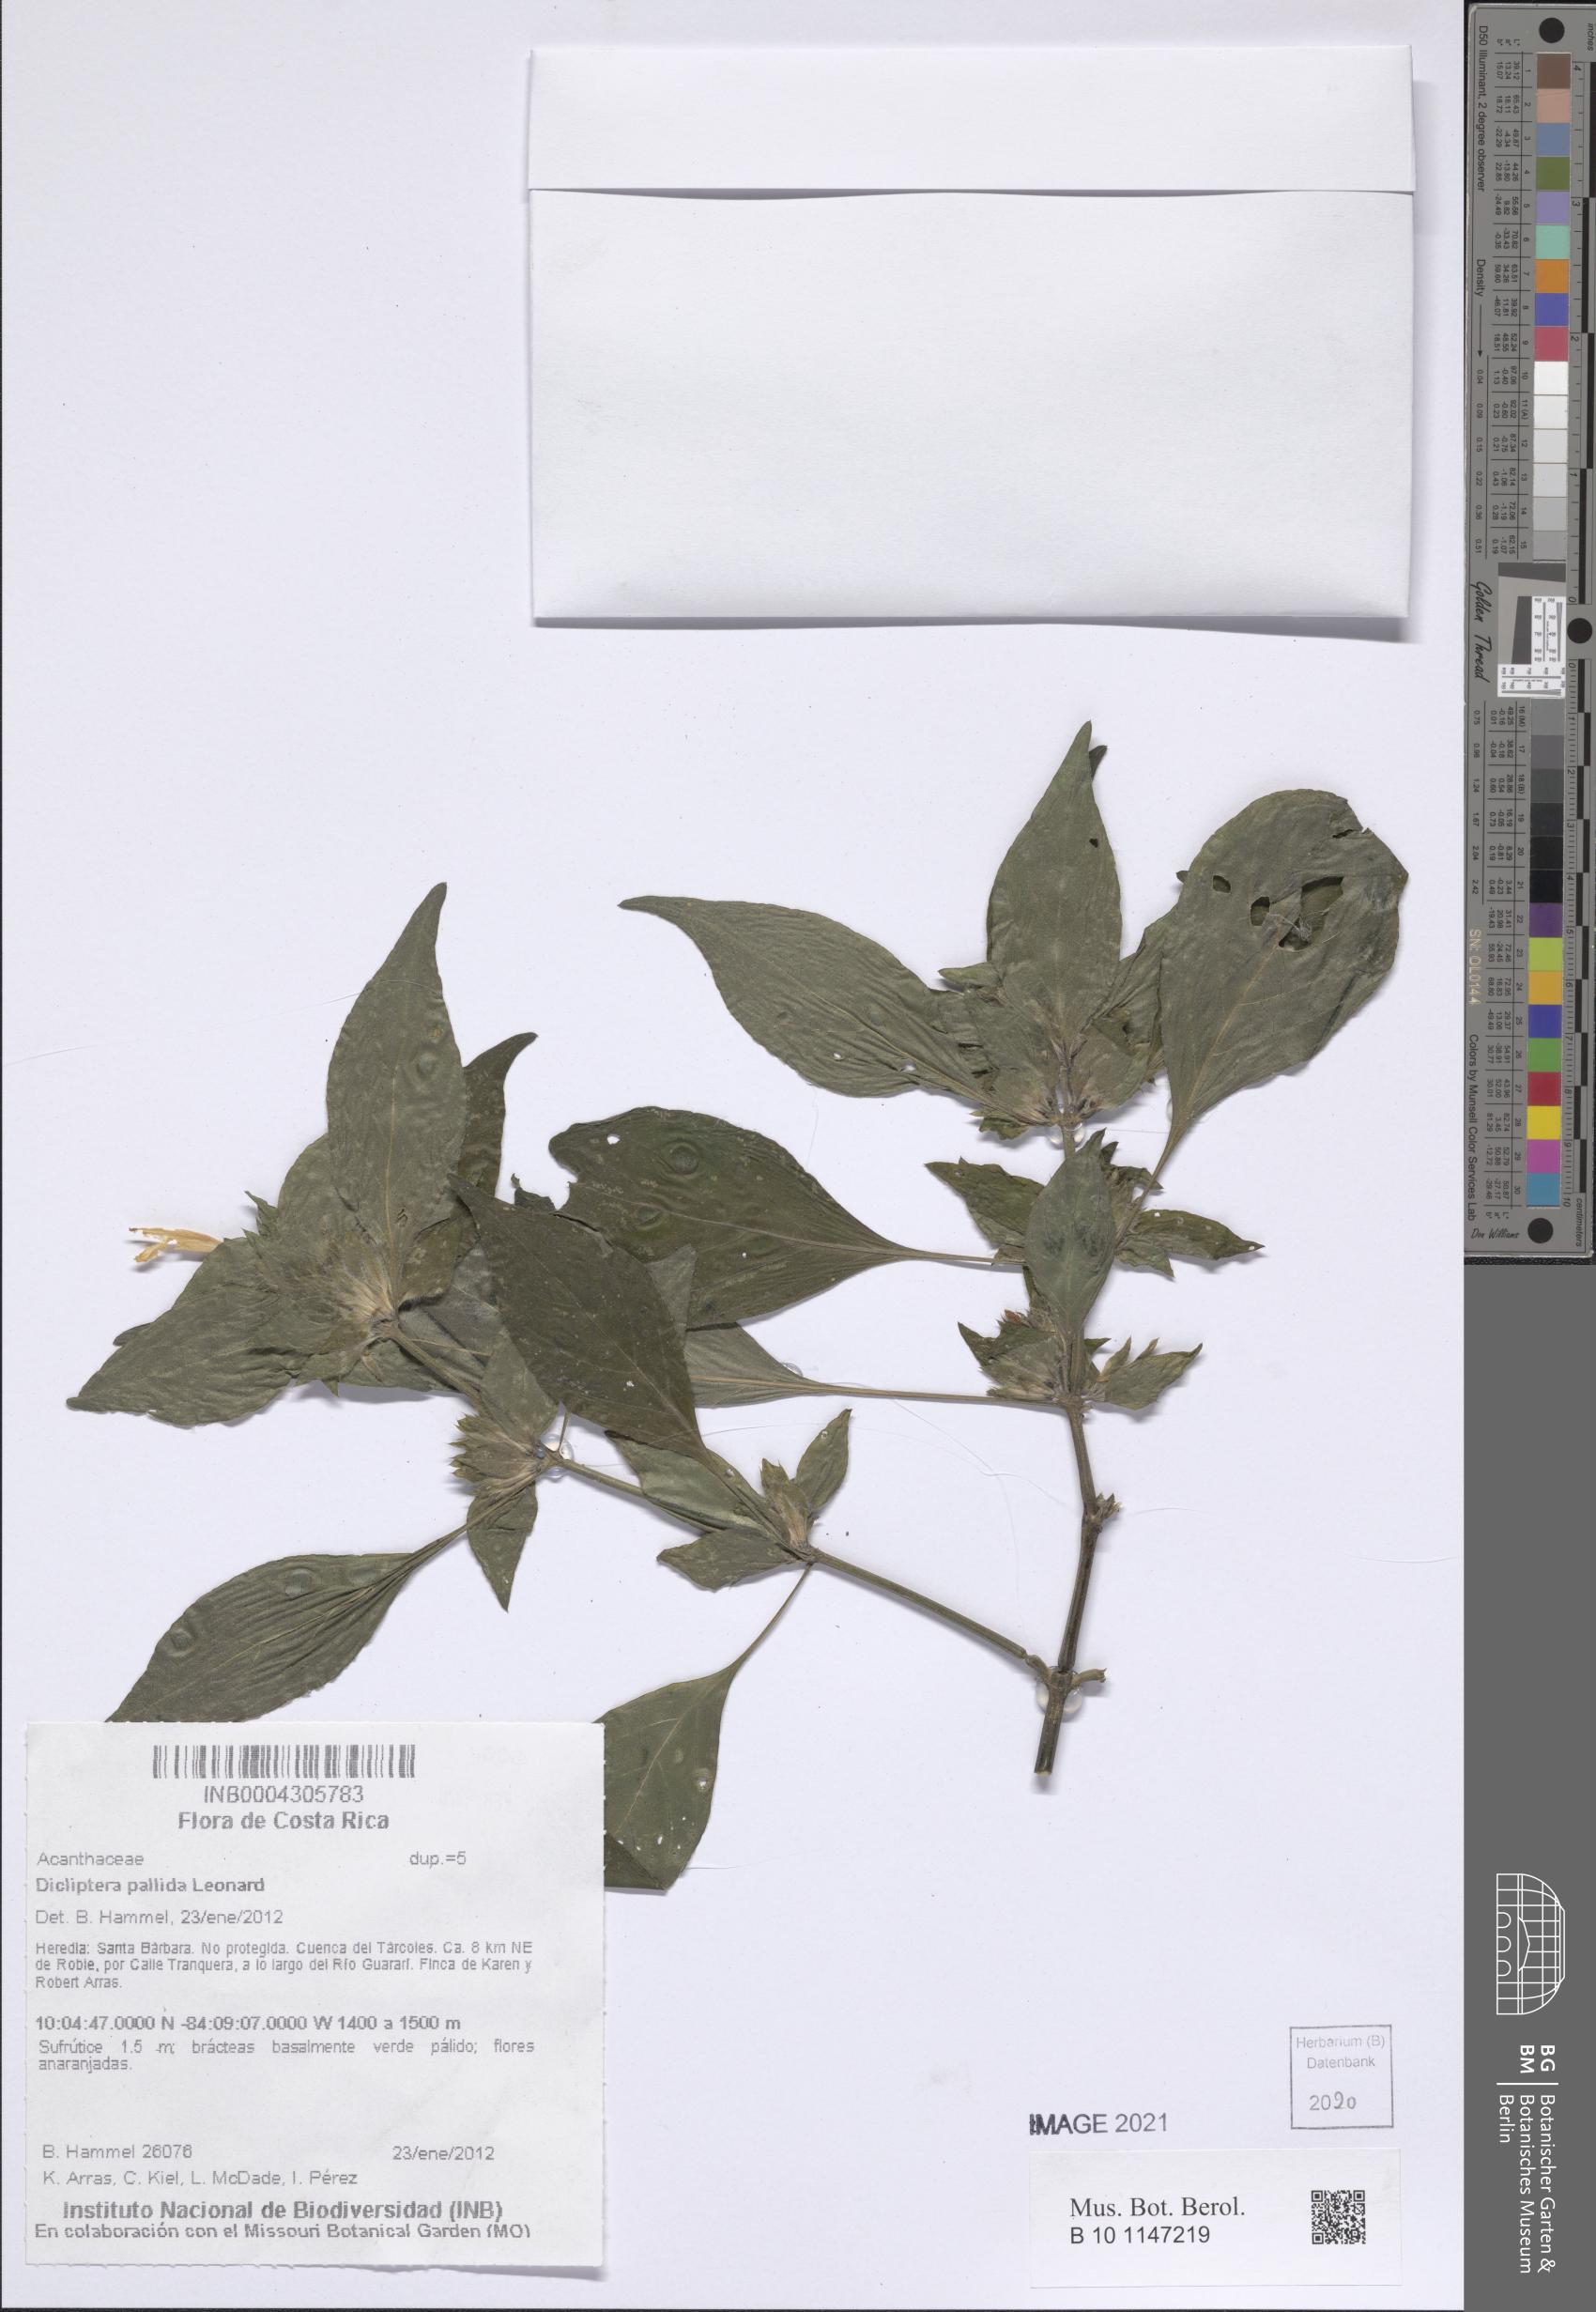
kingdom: Plantae
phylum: Tracheophyta
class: Magnoliopsida
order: Lamiales
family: Acanthaceae
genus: Dicliptera
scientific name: Dicliptera pallida
